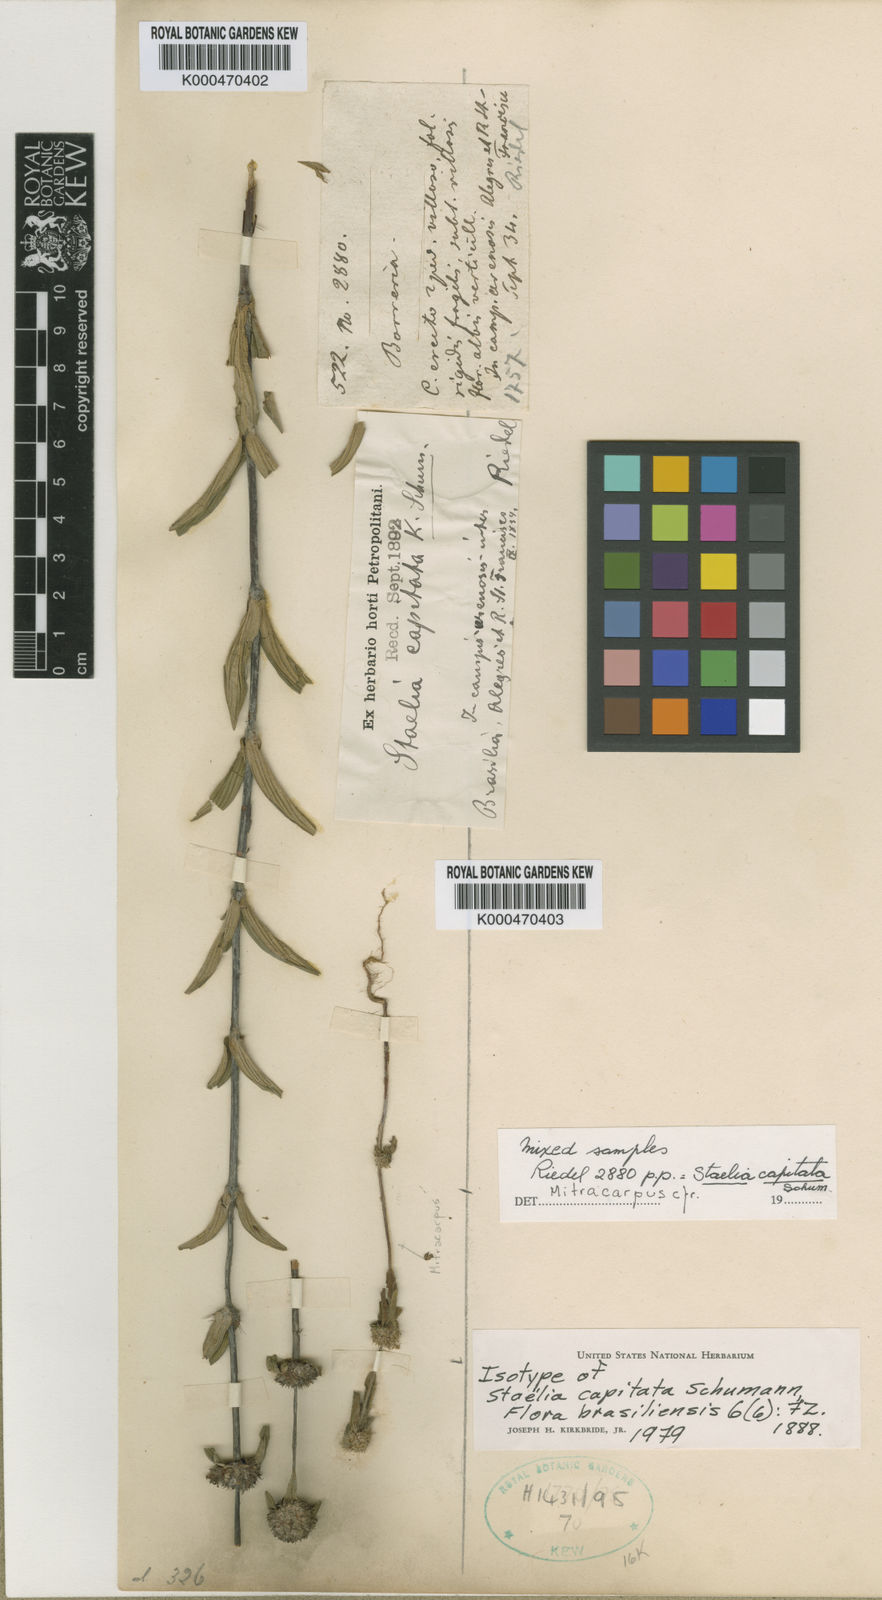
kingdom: Plantae
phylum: Tracheophyta
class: Magnoliopsida
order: Gentianales
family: Rubiaceae
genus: Planaltina
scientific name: Planaltina capitata
